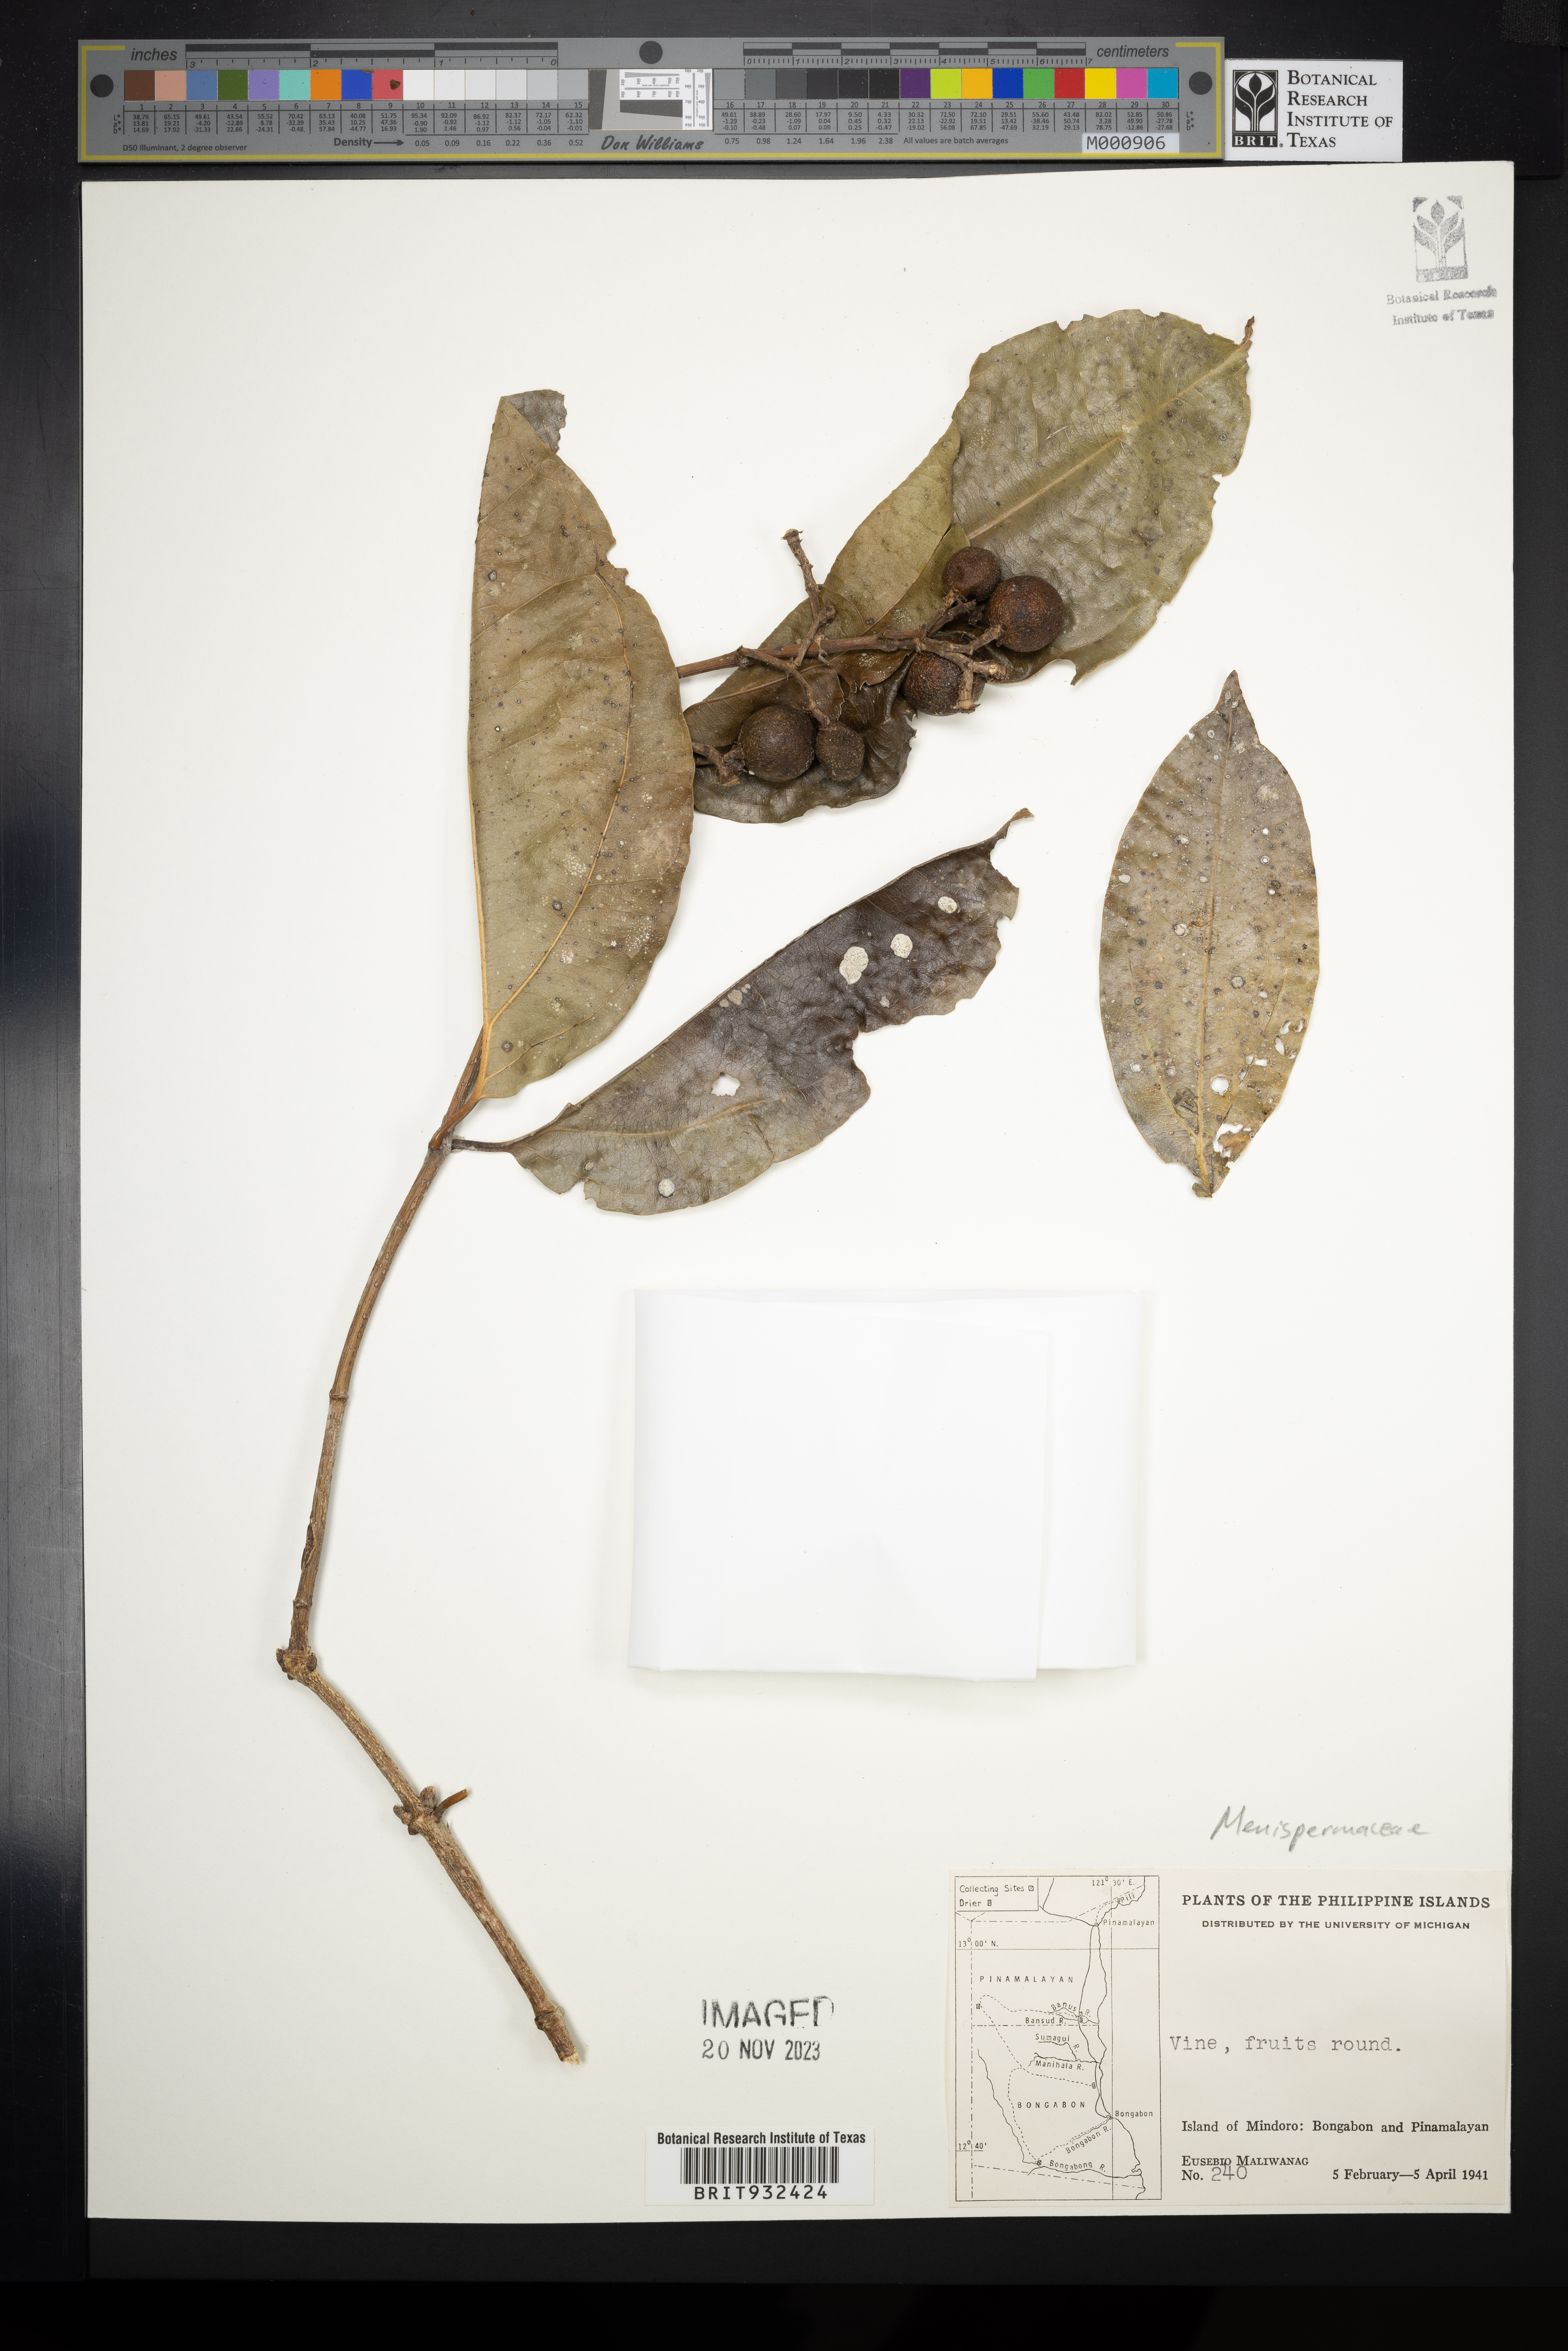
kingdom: Plantae
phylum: Tracheophyta
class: Magnoliopsida
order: Ranunculales
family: Menispermaceae
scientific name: Menispermaceae
